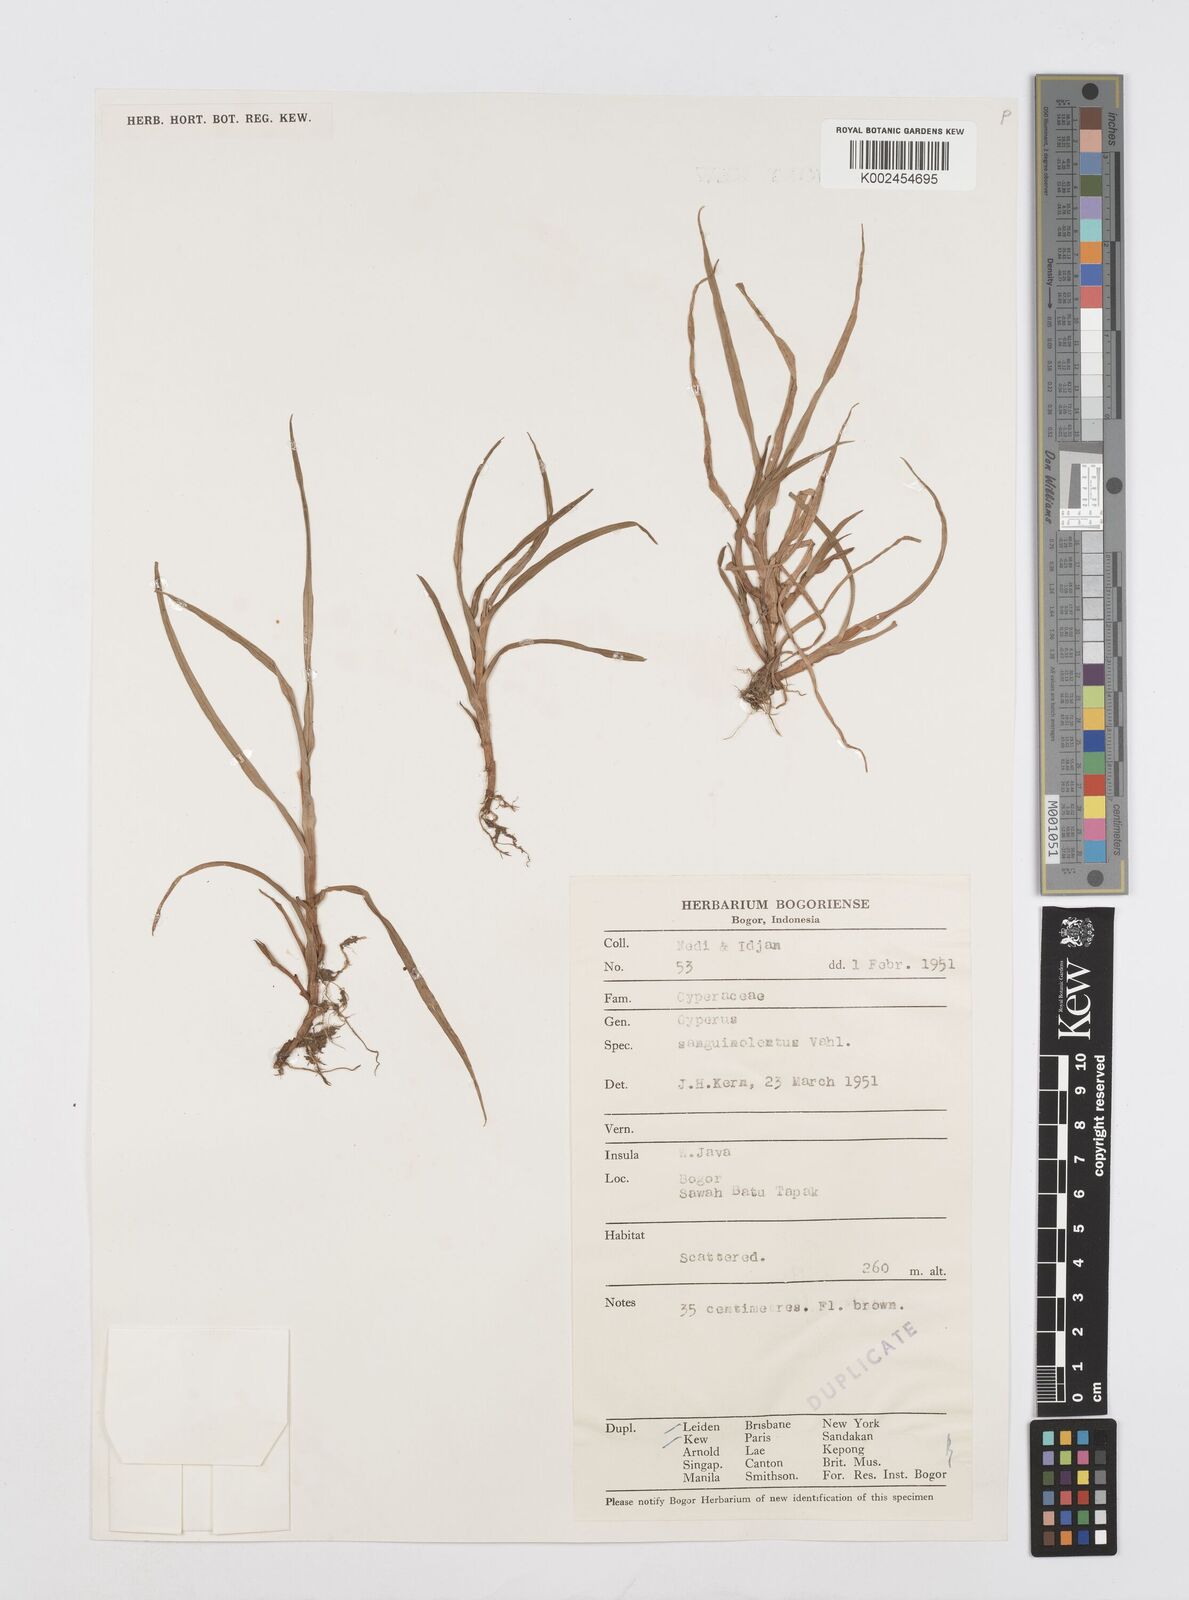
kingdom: Plantae
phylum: Tracheophyta
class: Liliopsida
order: Poales
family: Cyperaceae
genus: Cyperus
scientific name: Cyperus sanguinolentus
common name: Purpleglume flatsedge
